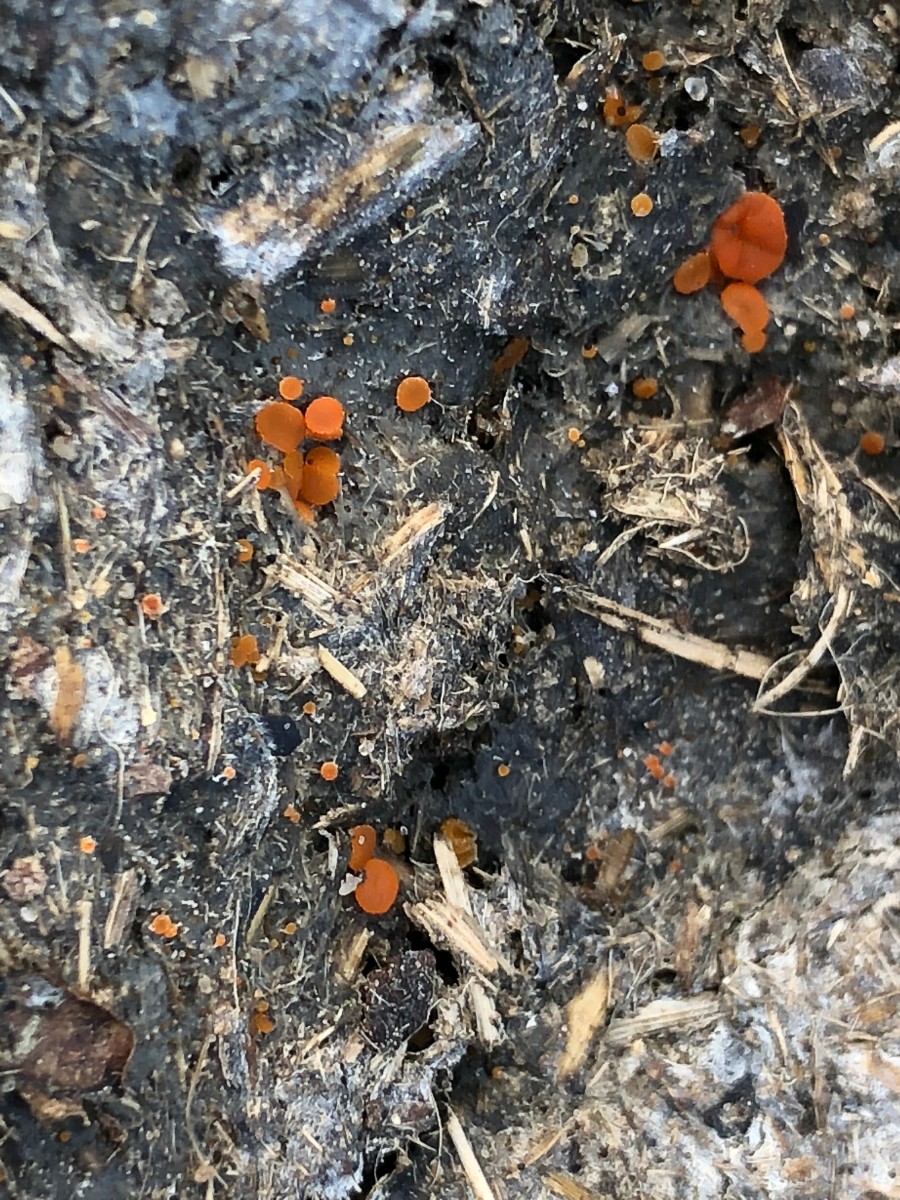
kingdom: Fungi
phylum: Ascomycota
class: Pezizomycetes
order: Pezizales
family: Pyronemataceae
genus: Cheilymenia
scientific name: Cheilymenia granulata
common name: møgbæger
